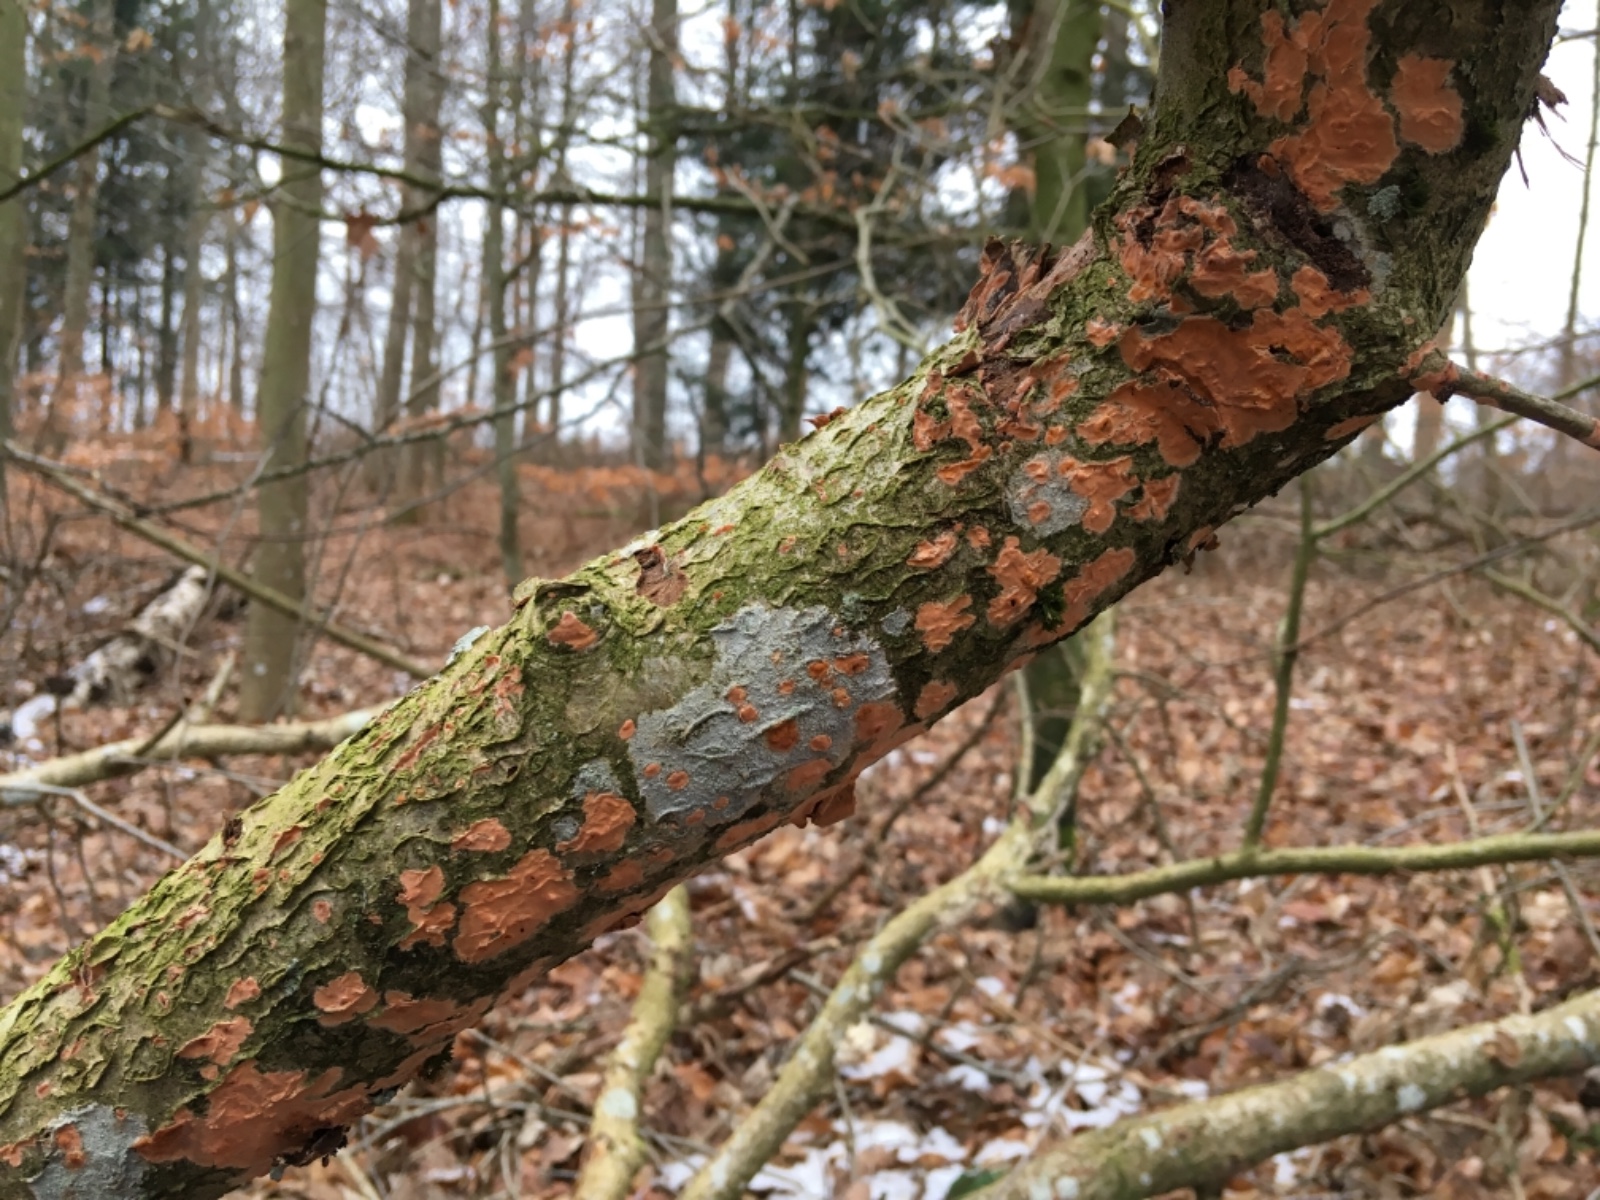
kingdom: Fungi
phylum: Basidiomycota
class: Agaricomycetes
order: Russulales
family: Peniophoraceae
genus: Peniophora
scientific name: Peniophora incarnata
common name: laksefarvet voksskind
